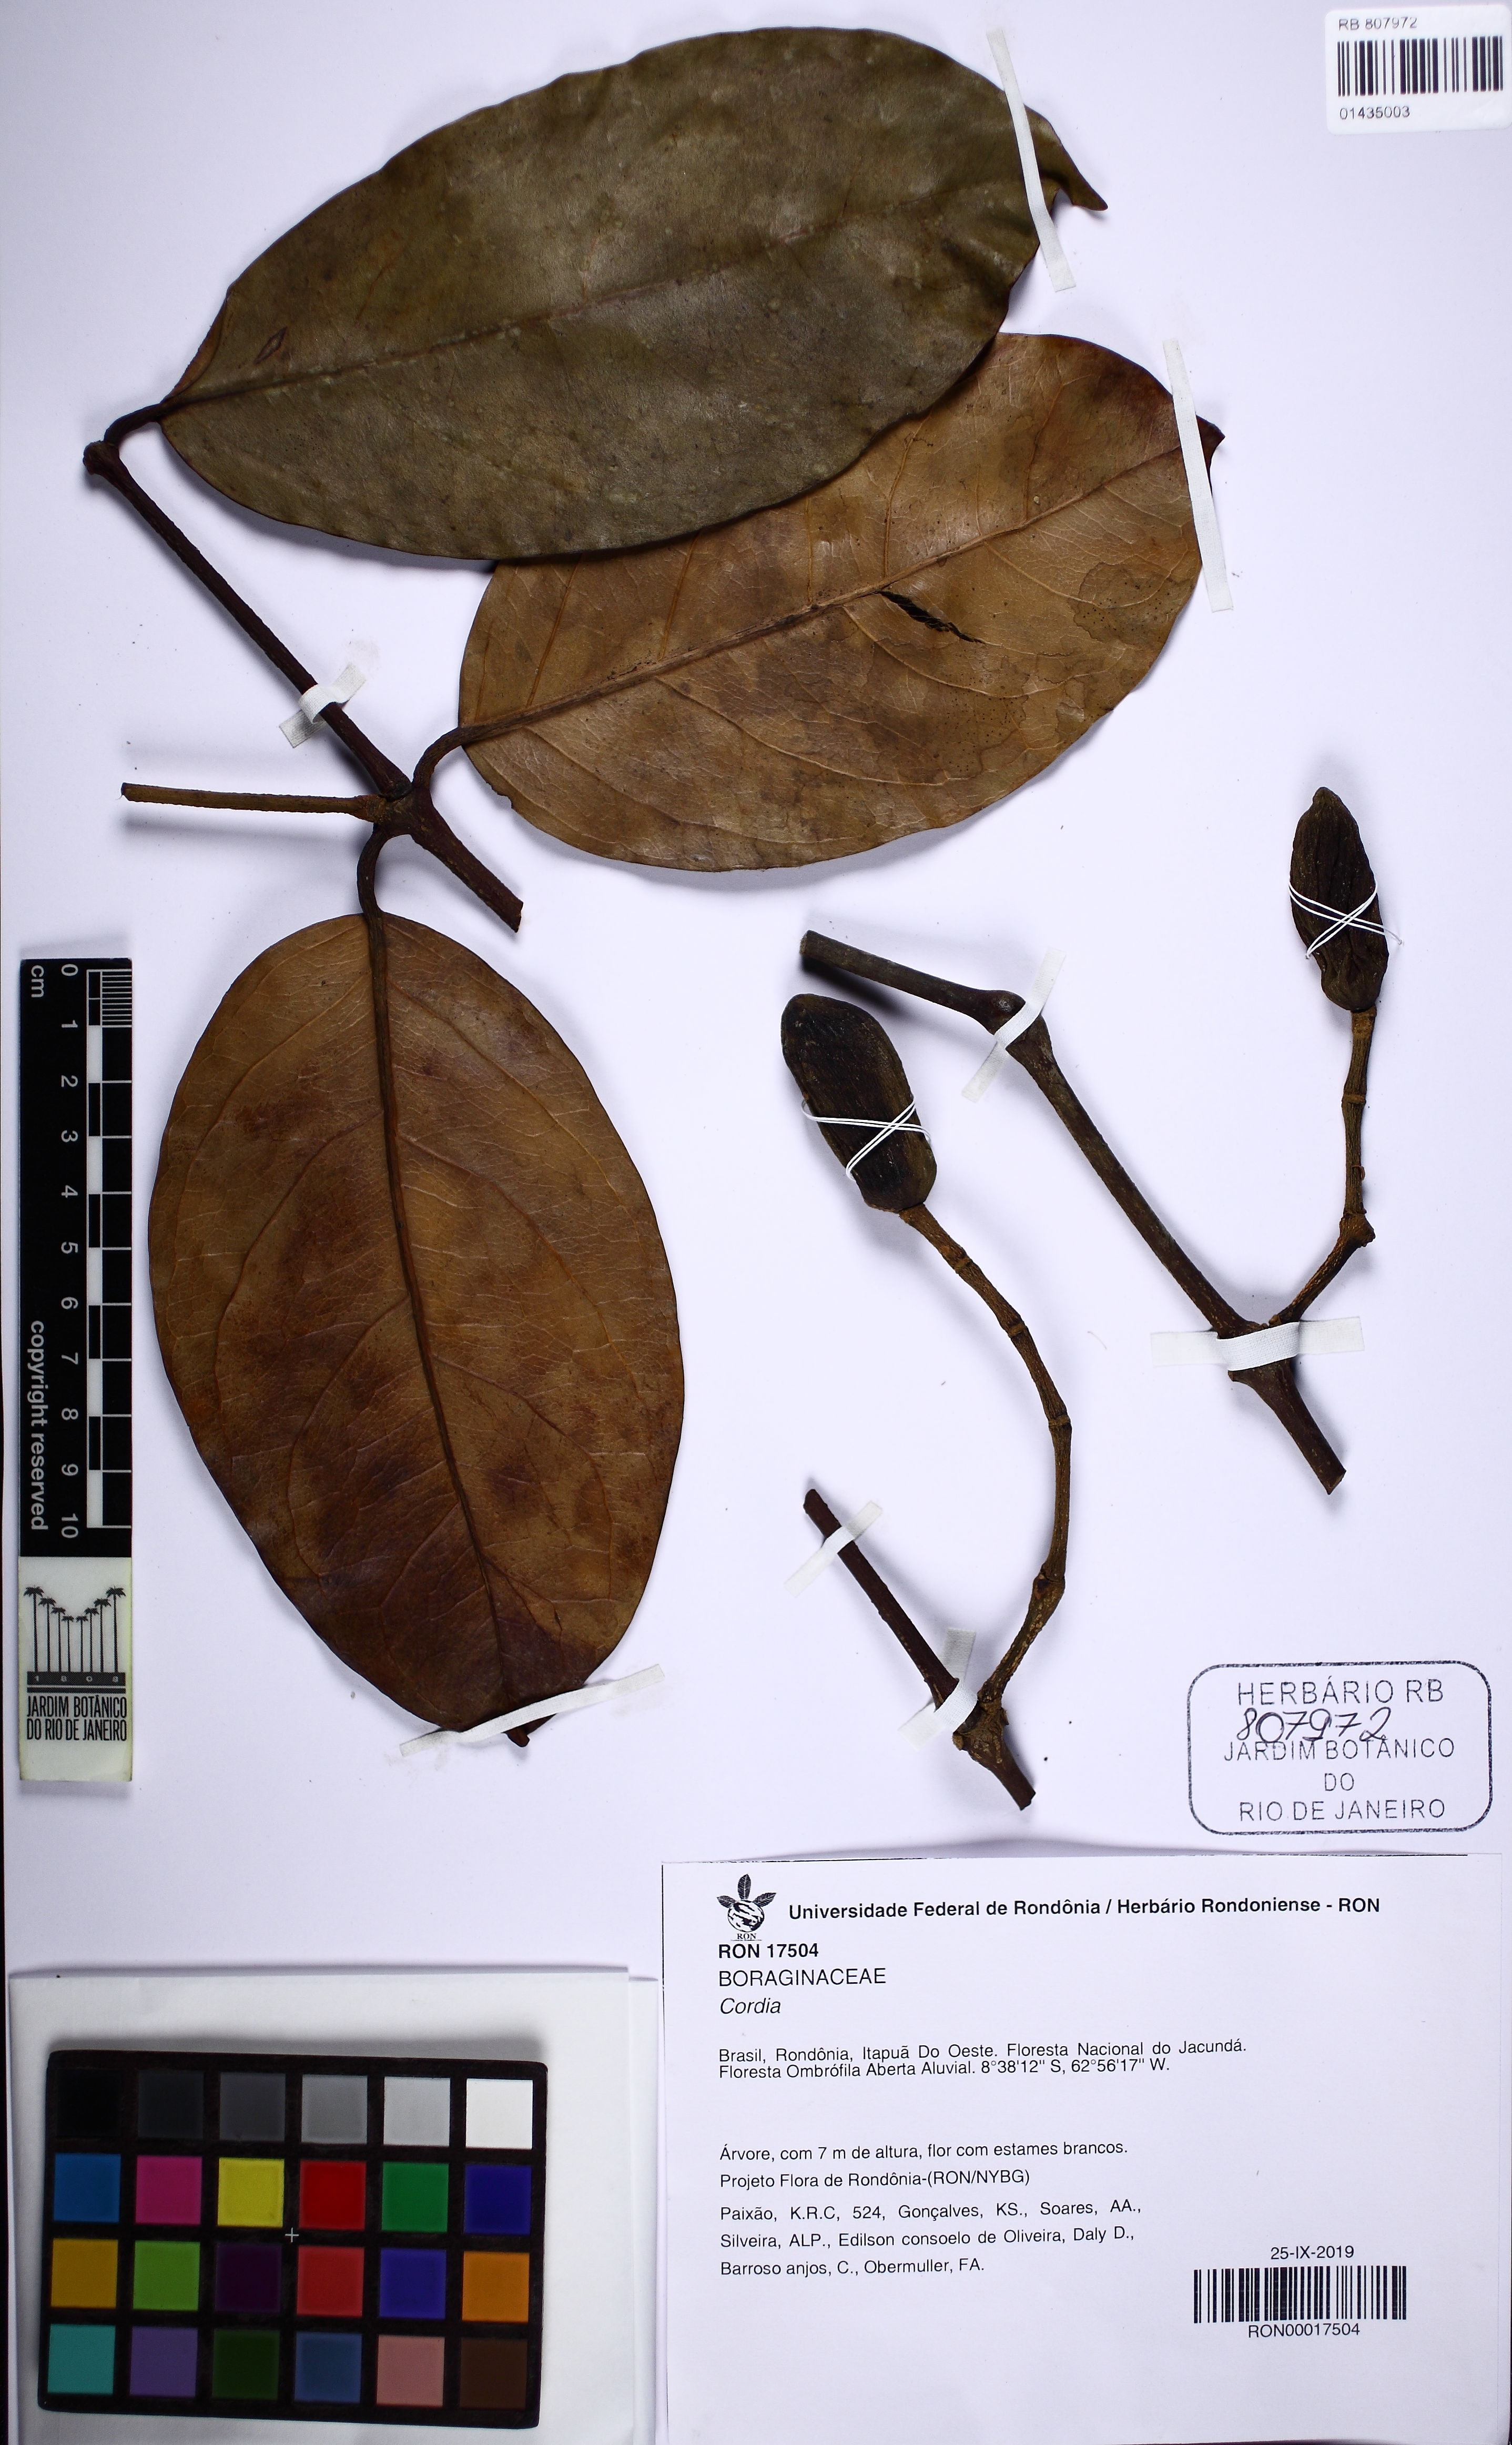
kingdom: Plantae
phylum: Tracheophyta
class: Magnoliopsida
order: Boraginales
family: Cordiaceae
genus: Cordia
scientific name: Cordia
